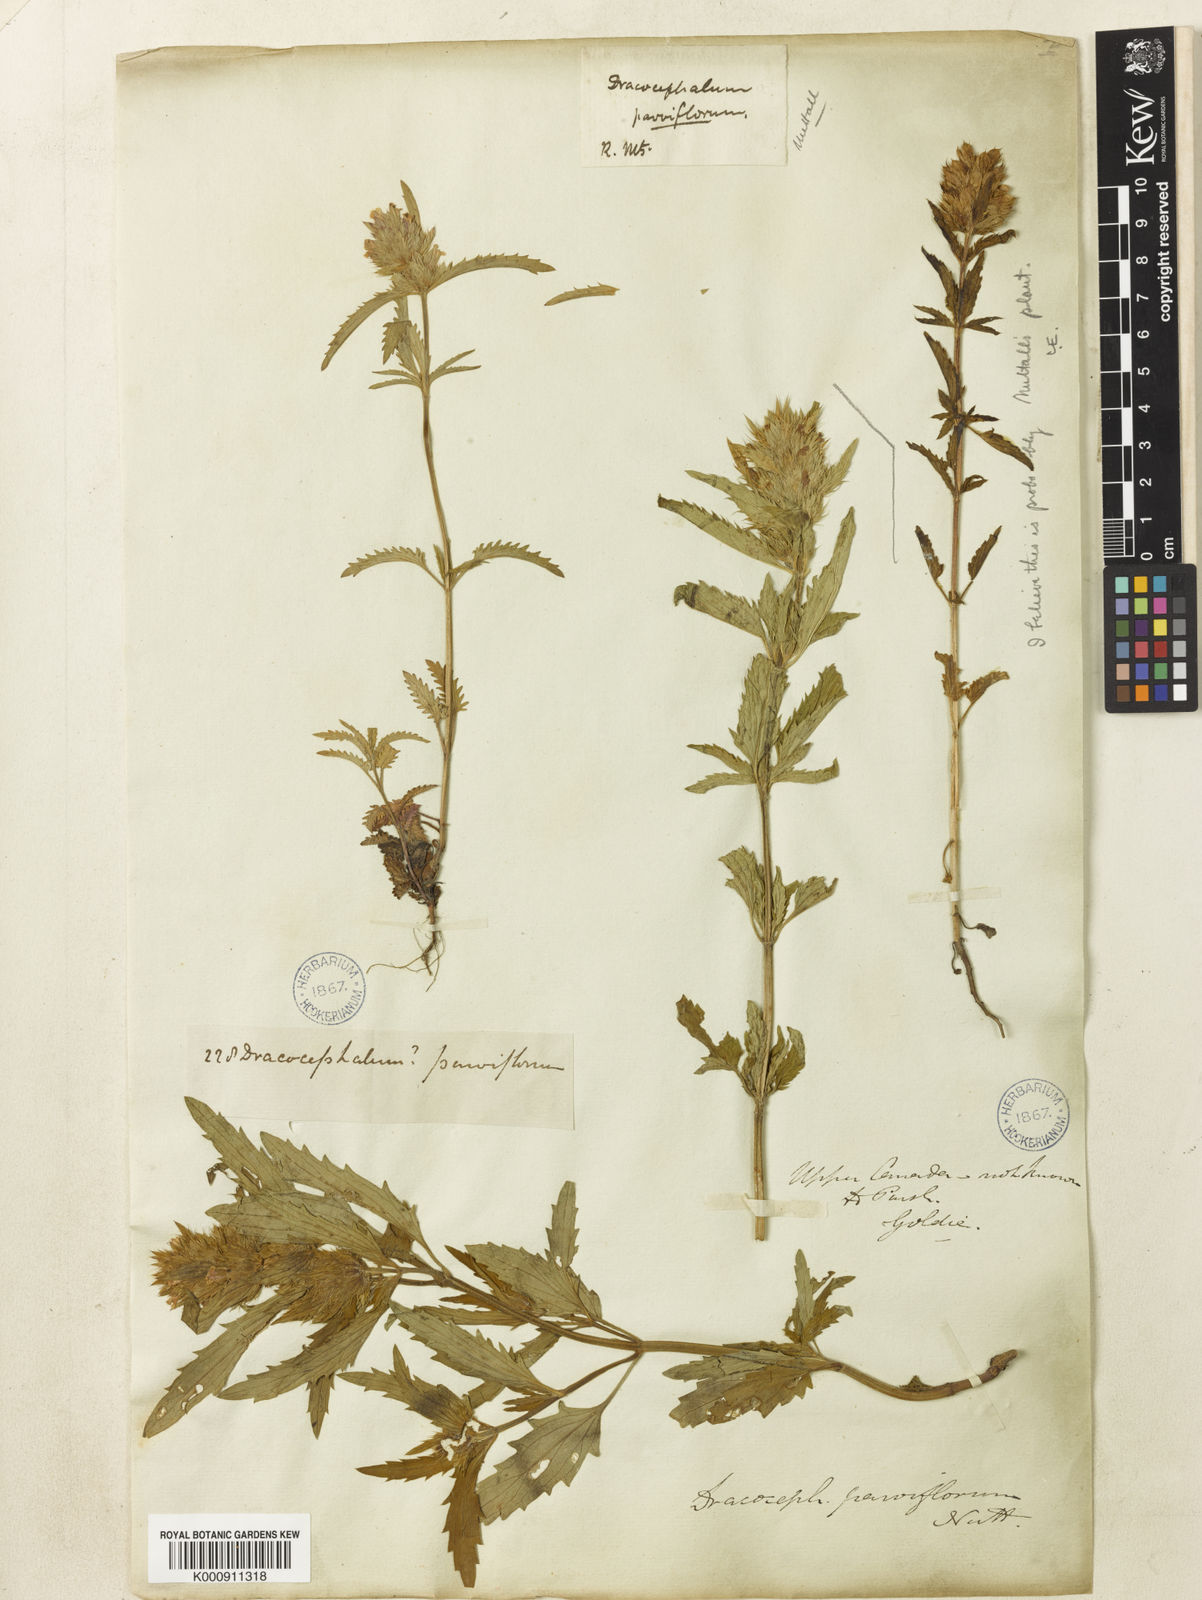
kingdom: Plantae
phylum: Tracheophyta
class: Magnoliopsida
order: Lamiales
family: Lamiaceae
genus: Dracocephalum
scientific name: Dracocephalum parviflorum
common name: American dragonhead
